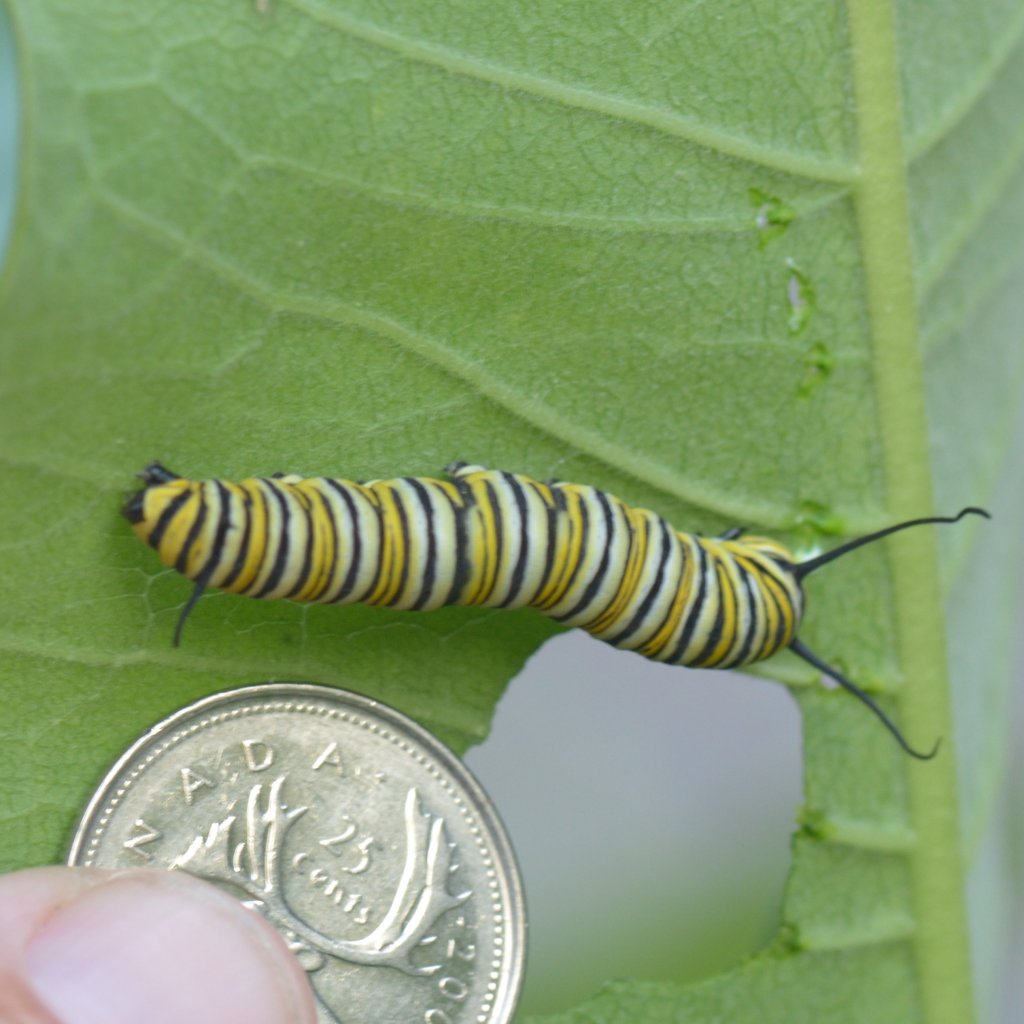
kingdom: Animalia
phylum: Arthropoda
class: Insecta
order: Lepidoptera
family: Nymphalidae
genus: Danaus
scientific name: Danaus plexippus
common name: Monarch
